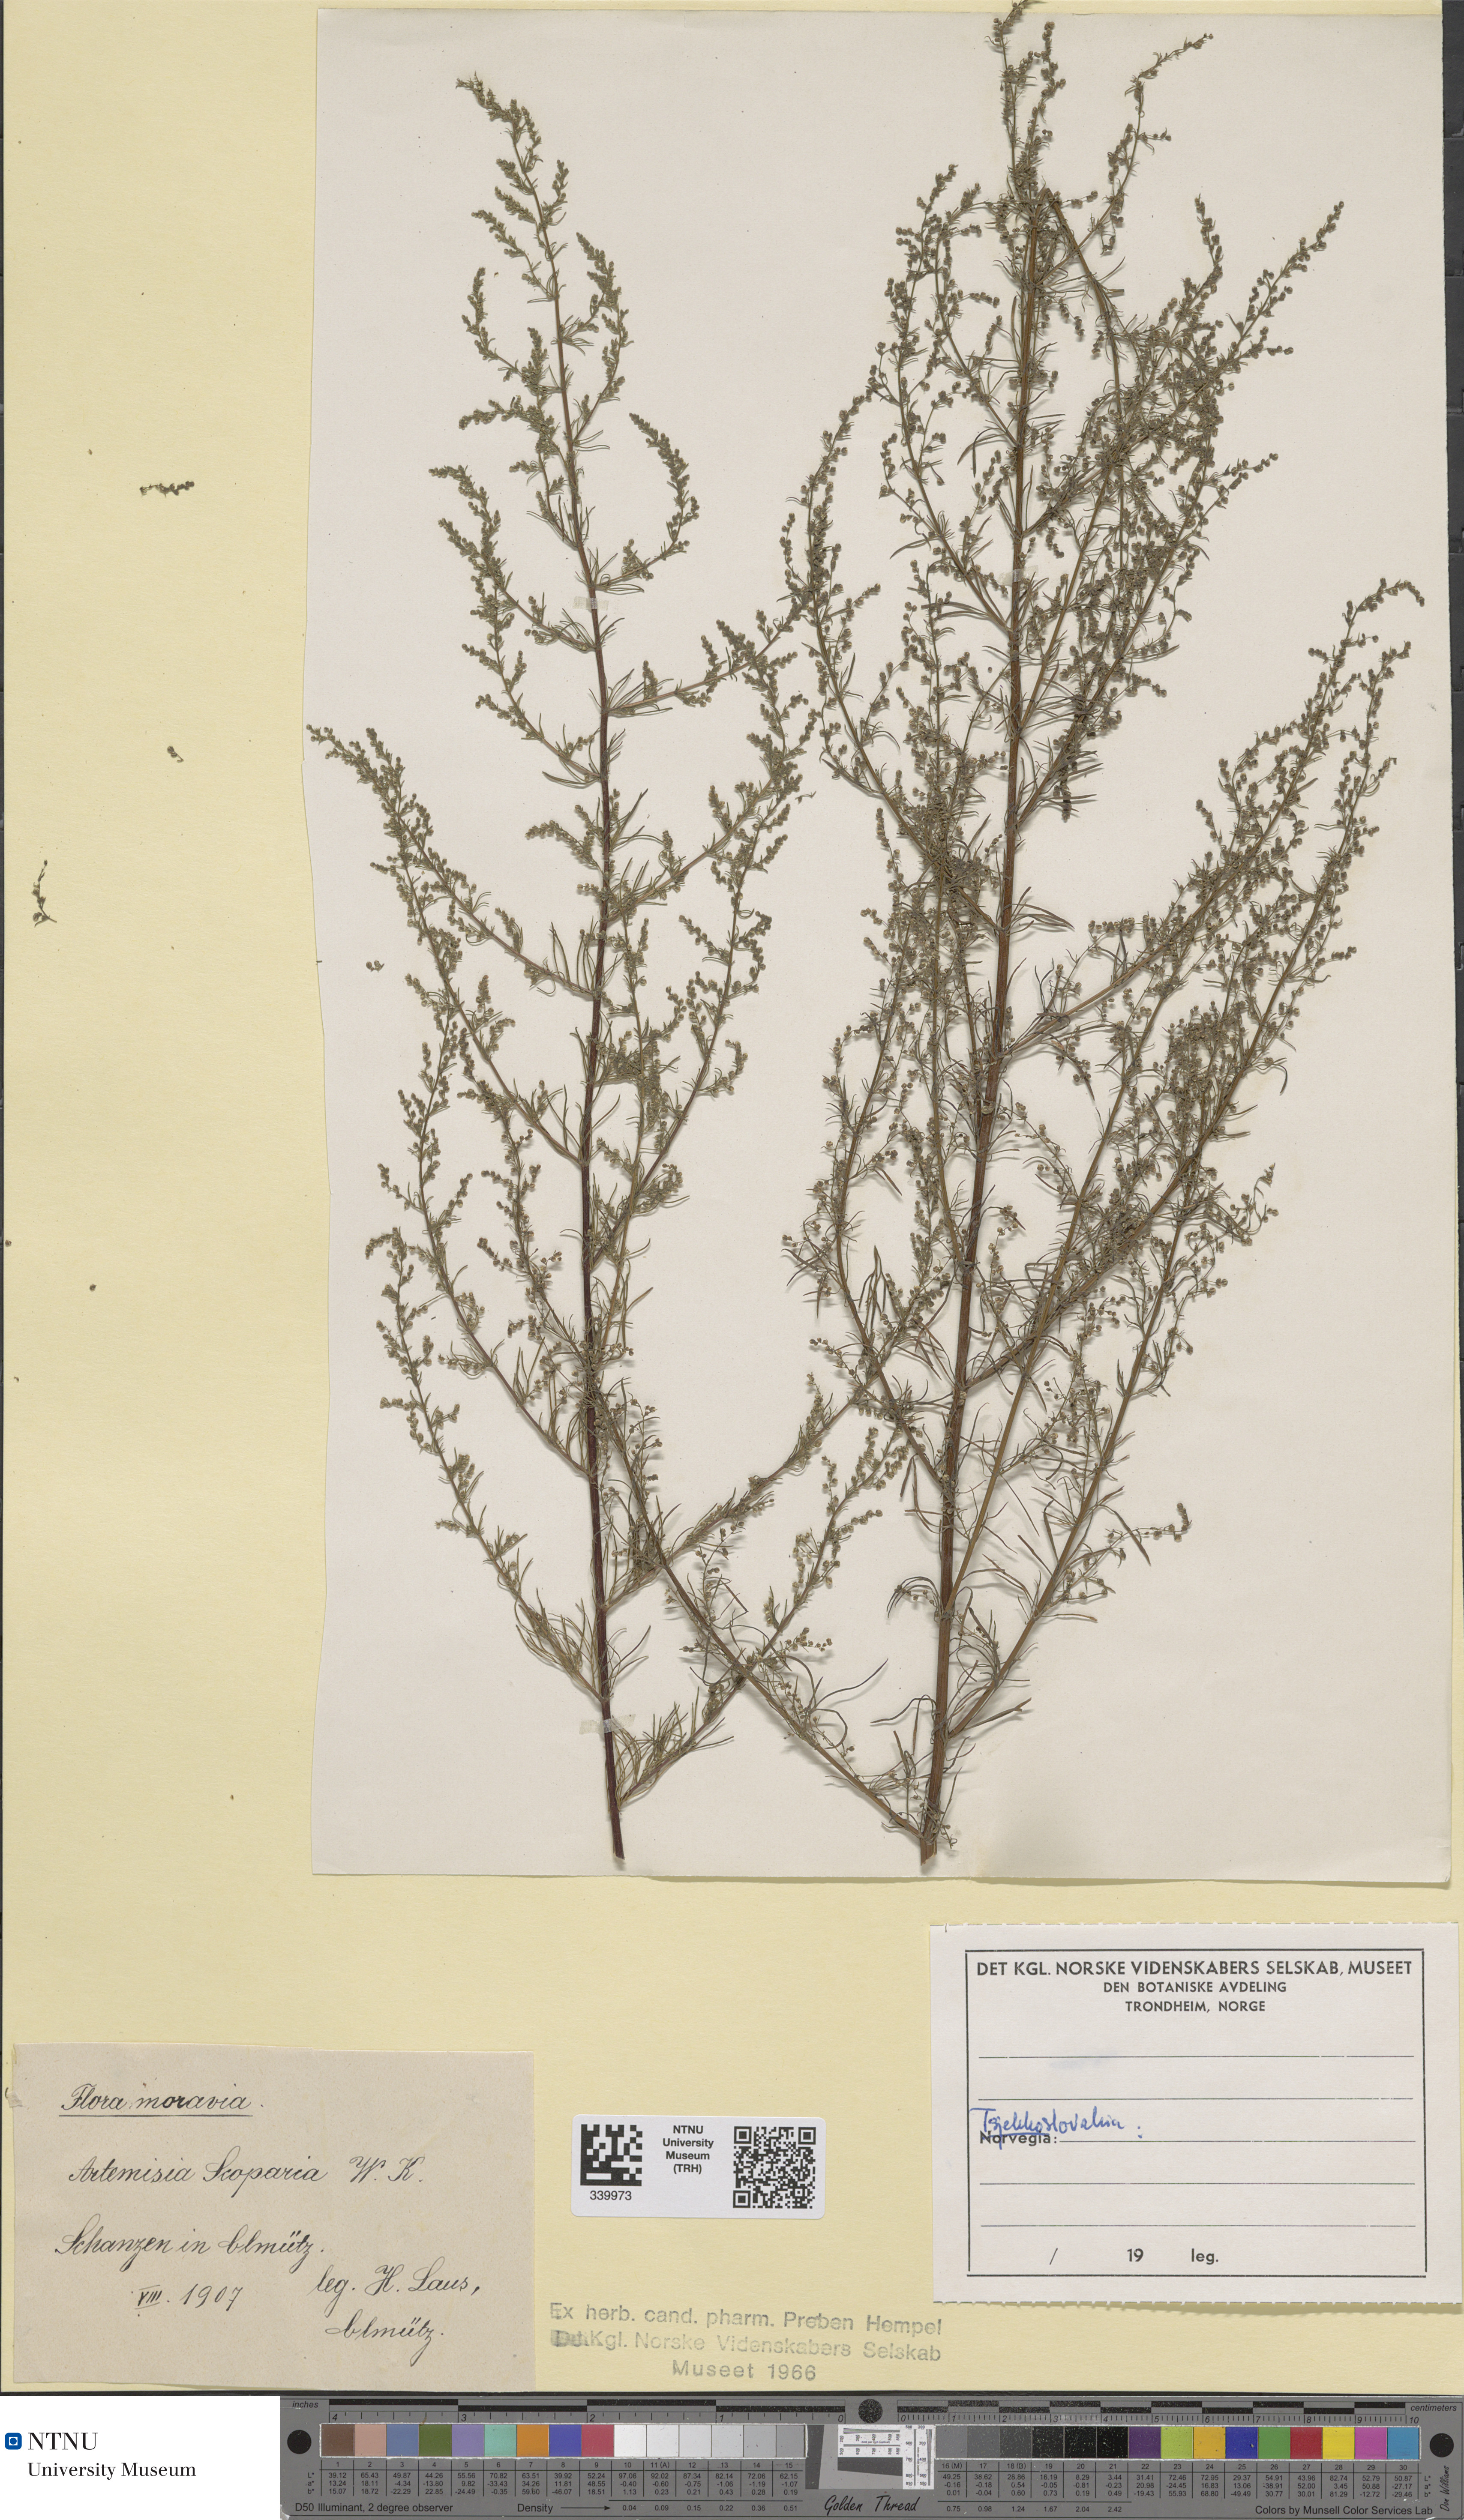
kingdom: Plantae
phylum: Tracheophyta
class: Magnoliopsida
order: Asterales
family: Asteraceae
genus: Artemisia
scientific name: Artemisia scoparia
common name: Redstem wormwood
